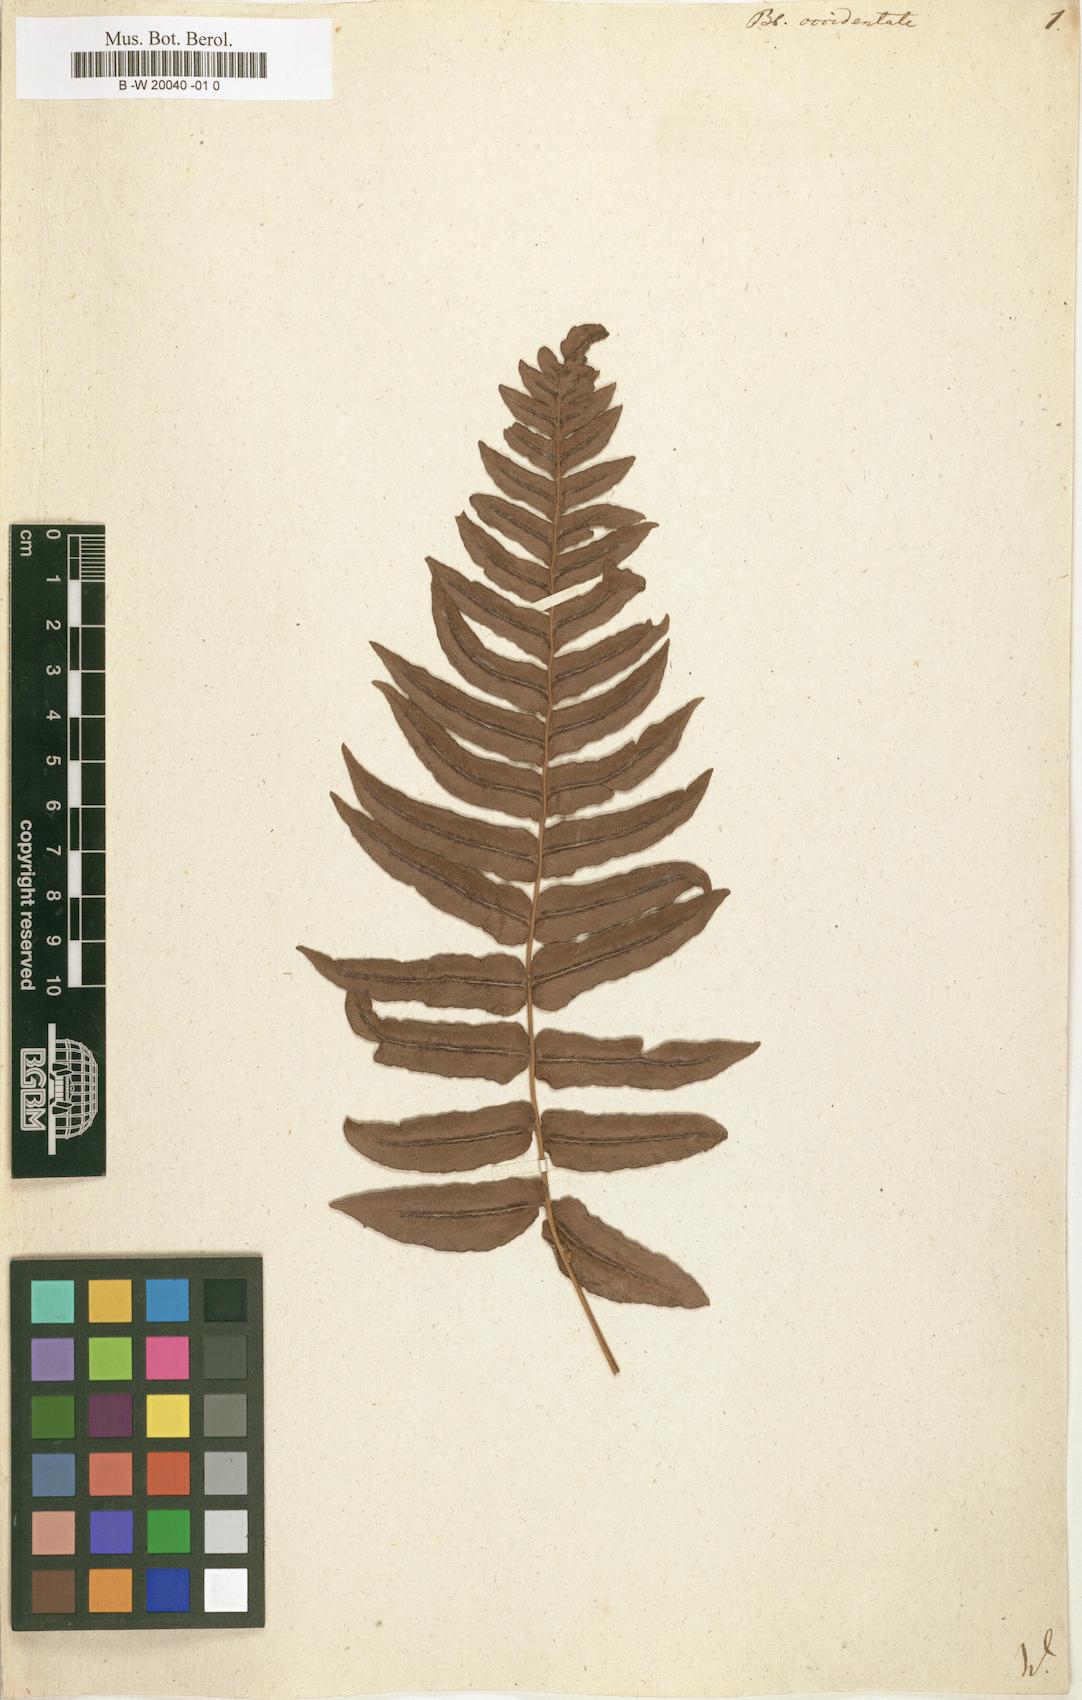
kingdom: Plantae
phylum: Tracheophyta
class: Polypodiopsida
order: Polypodiales
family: Blechnaceae
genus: Blechnum
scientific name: Blechnum occidentale
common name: Hammock fern
